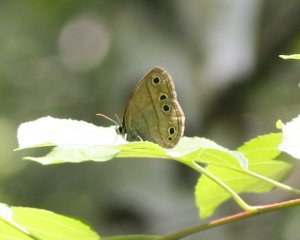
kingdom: Animalia
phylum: Arthropoda
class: Insecta
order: Lepidoptera
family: Nymphalidae
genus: Euptychia
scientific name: Euptychia cymela
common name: Little Wood Satyr
